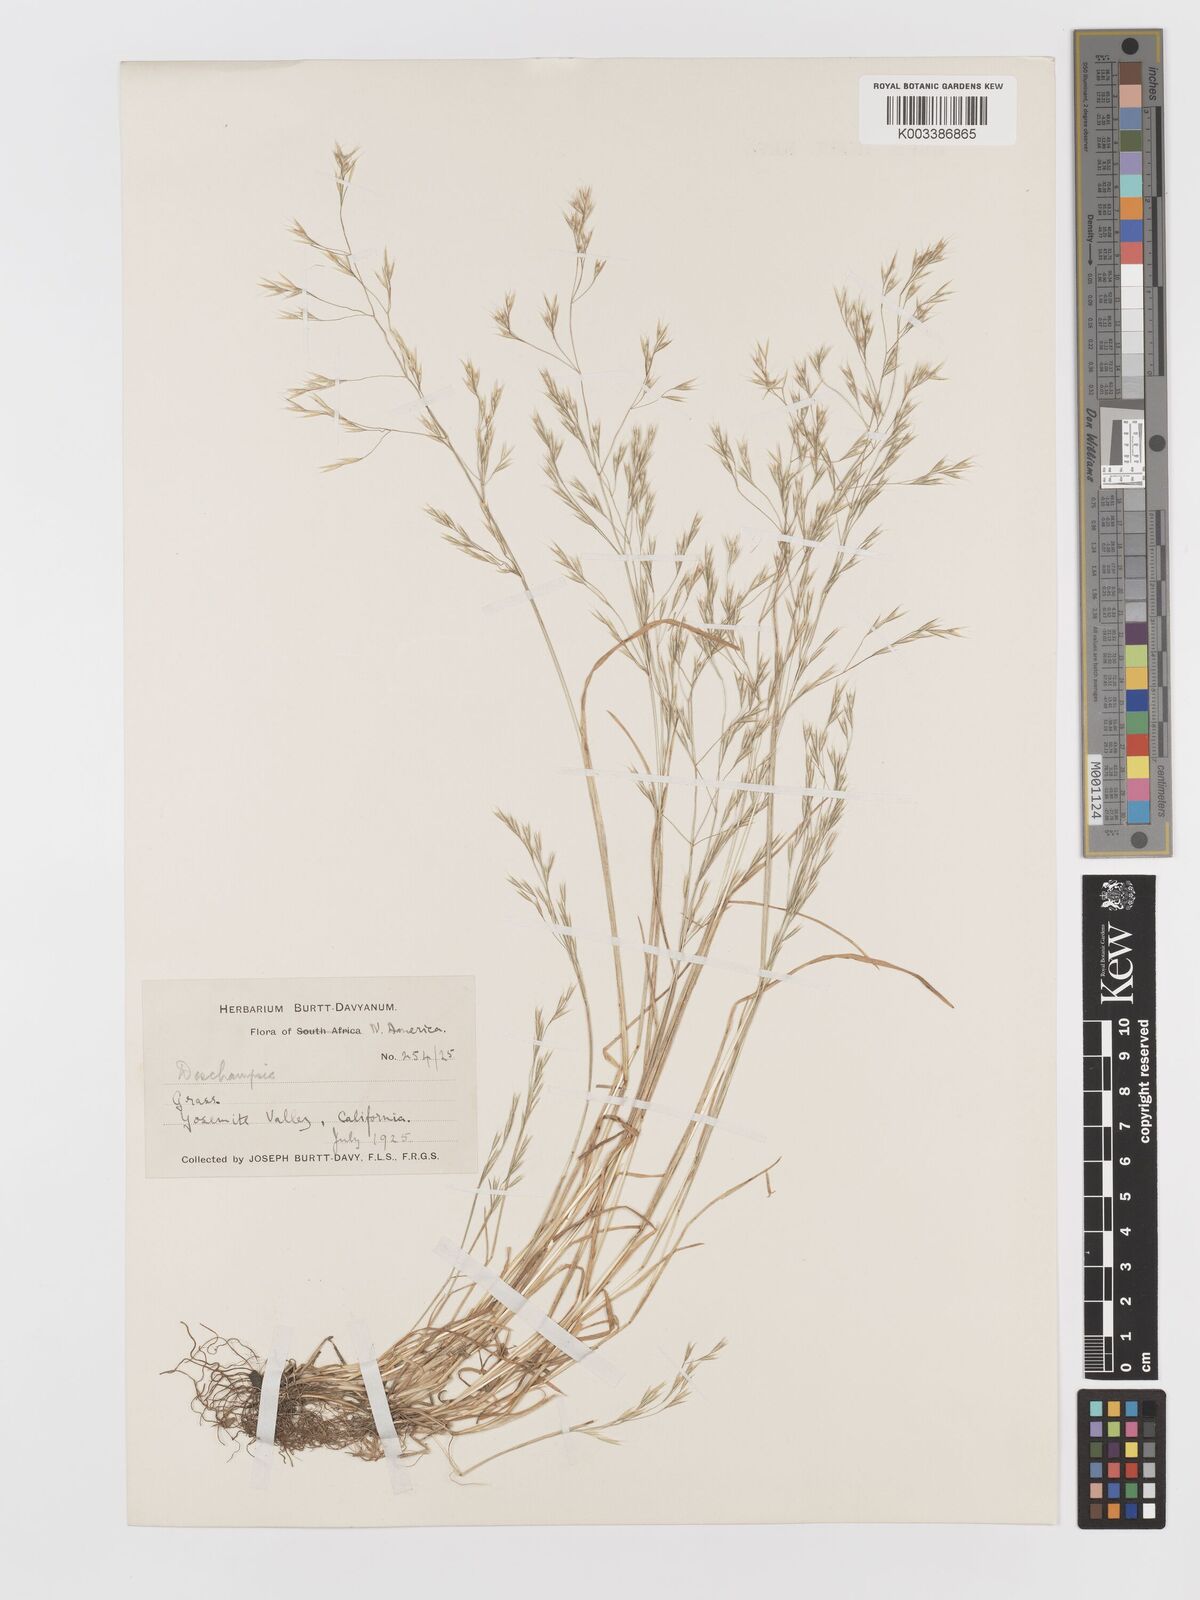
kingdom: Plantae
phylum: Tracheophyta
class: Liliopsida
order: Poales
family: Poaceae
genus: Deschampsia
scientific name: Deschampsia danthonioides
